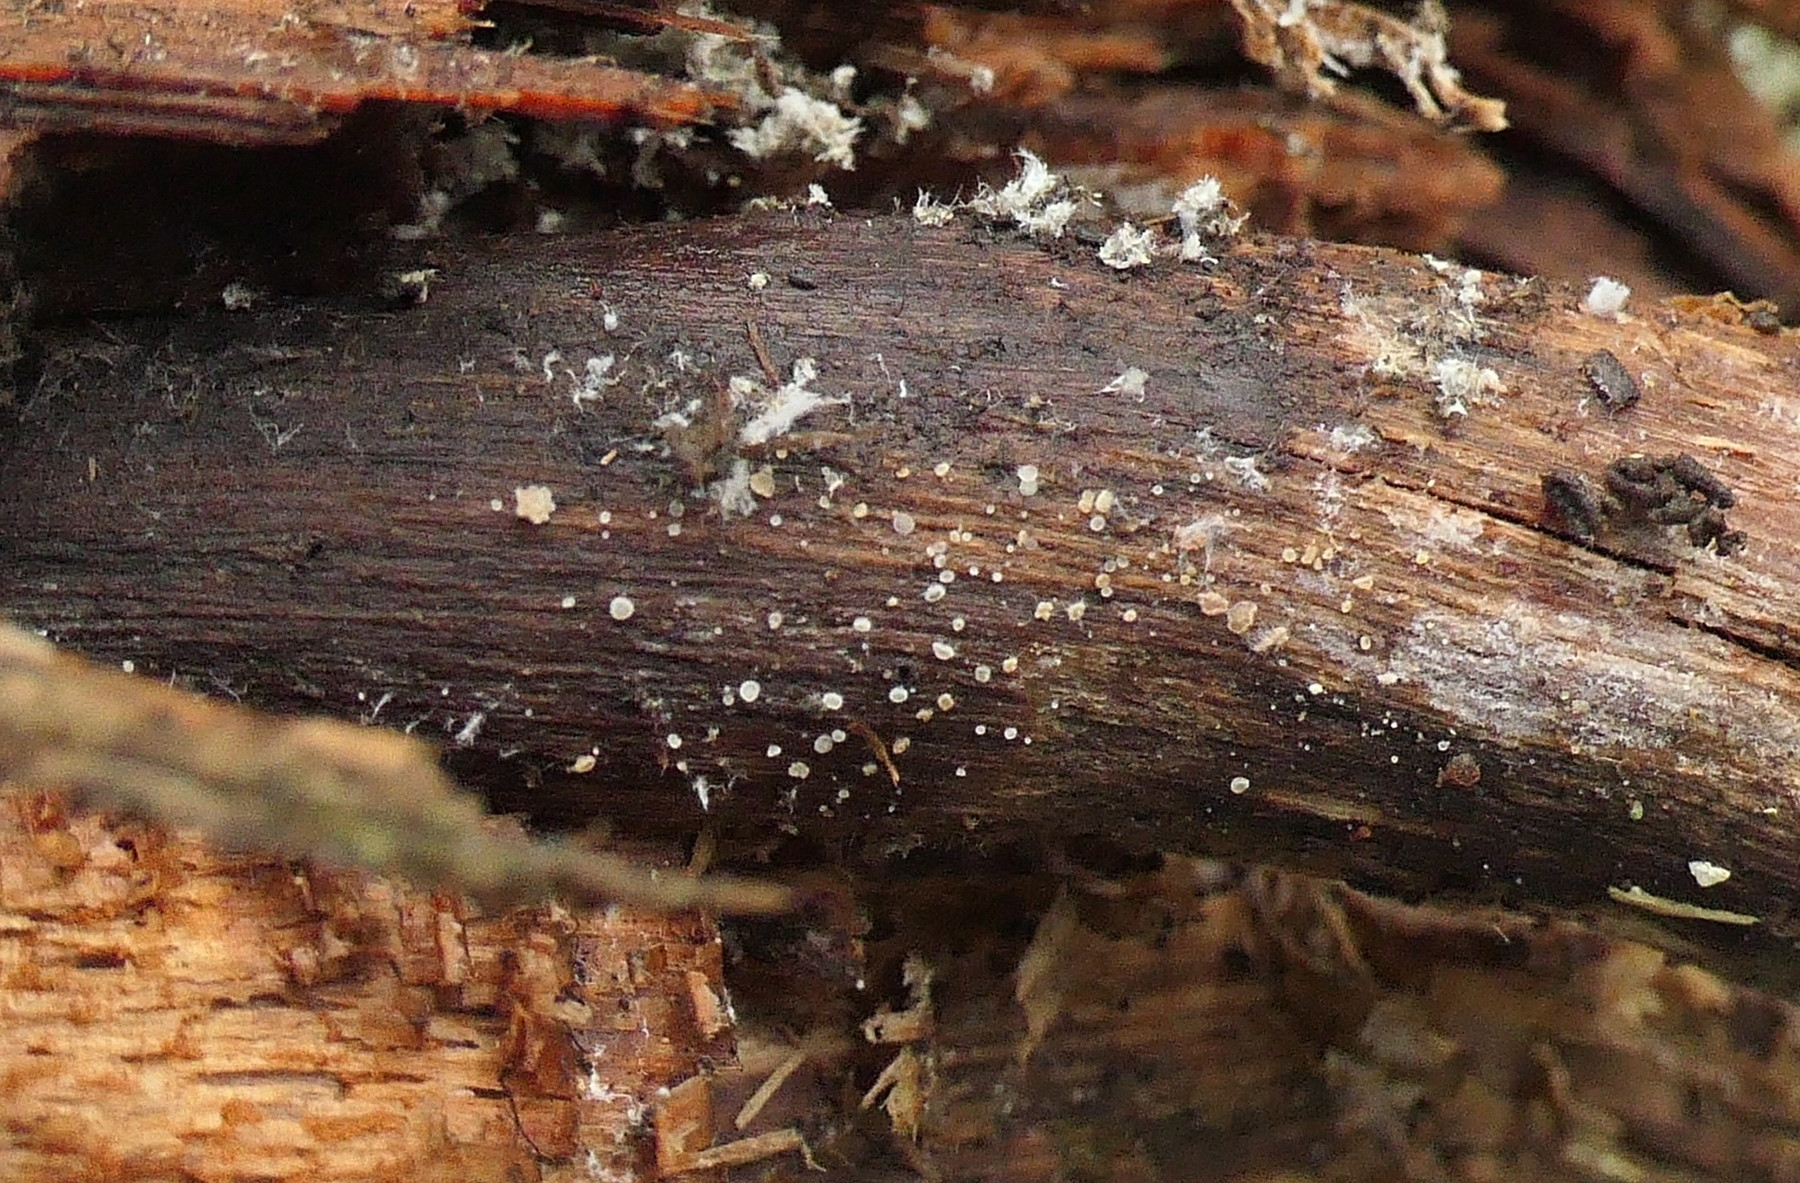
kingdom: Fungi
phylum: Ascomycota
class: Leotiomycetes
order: Helotiales
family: Hyaloscyphaceae
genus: Hyaloscypha
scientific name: Hyaloscypha fuckelii
